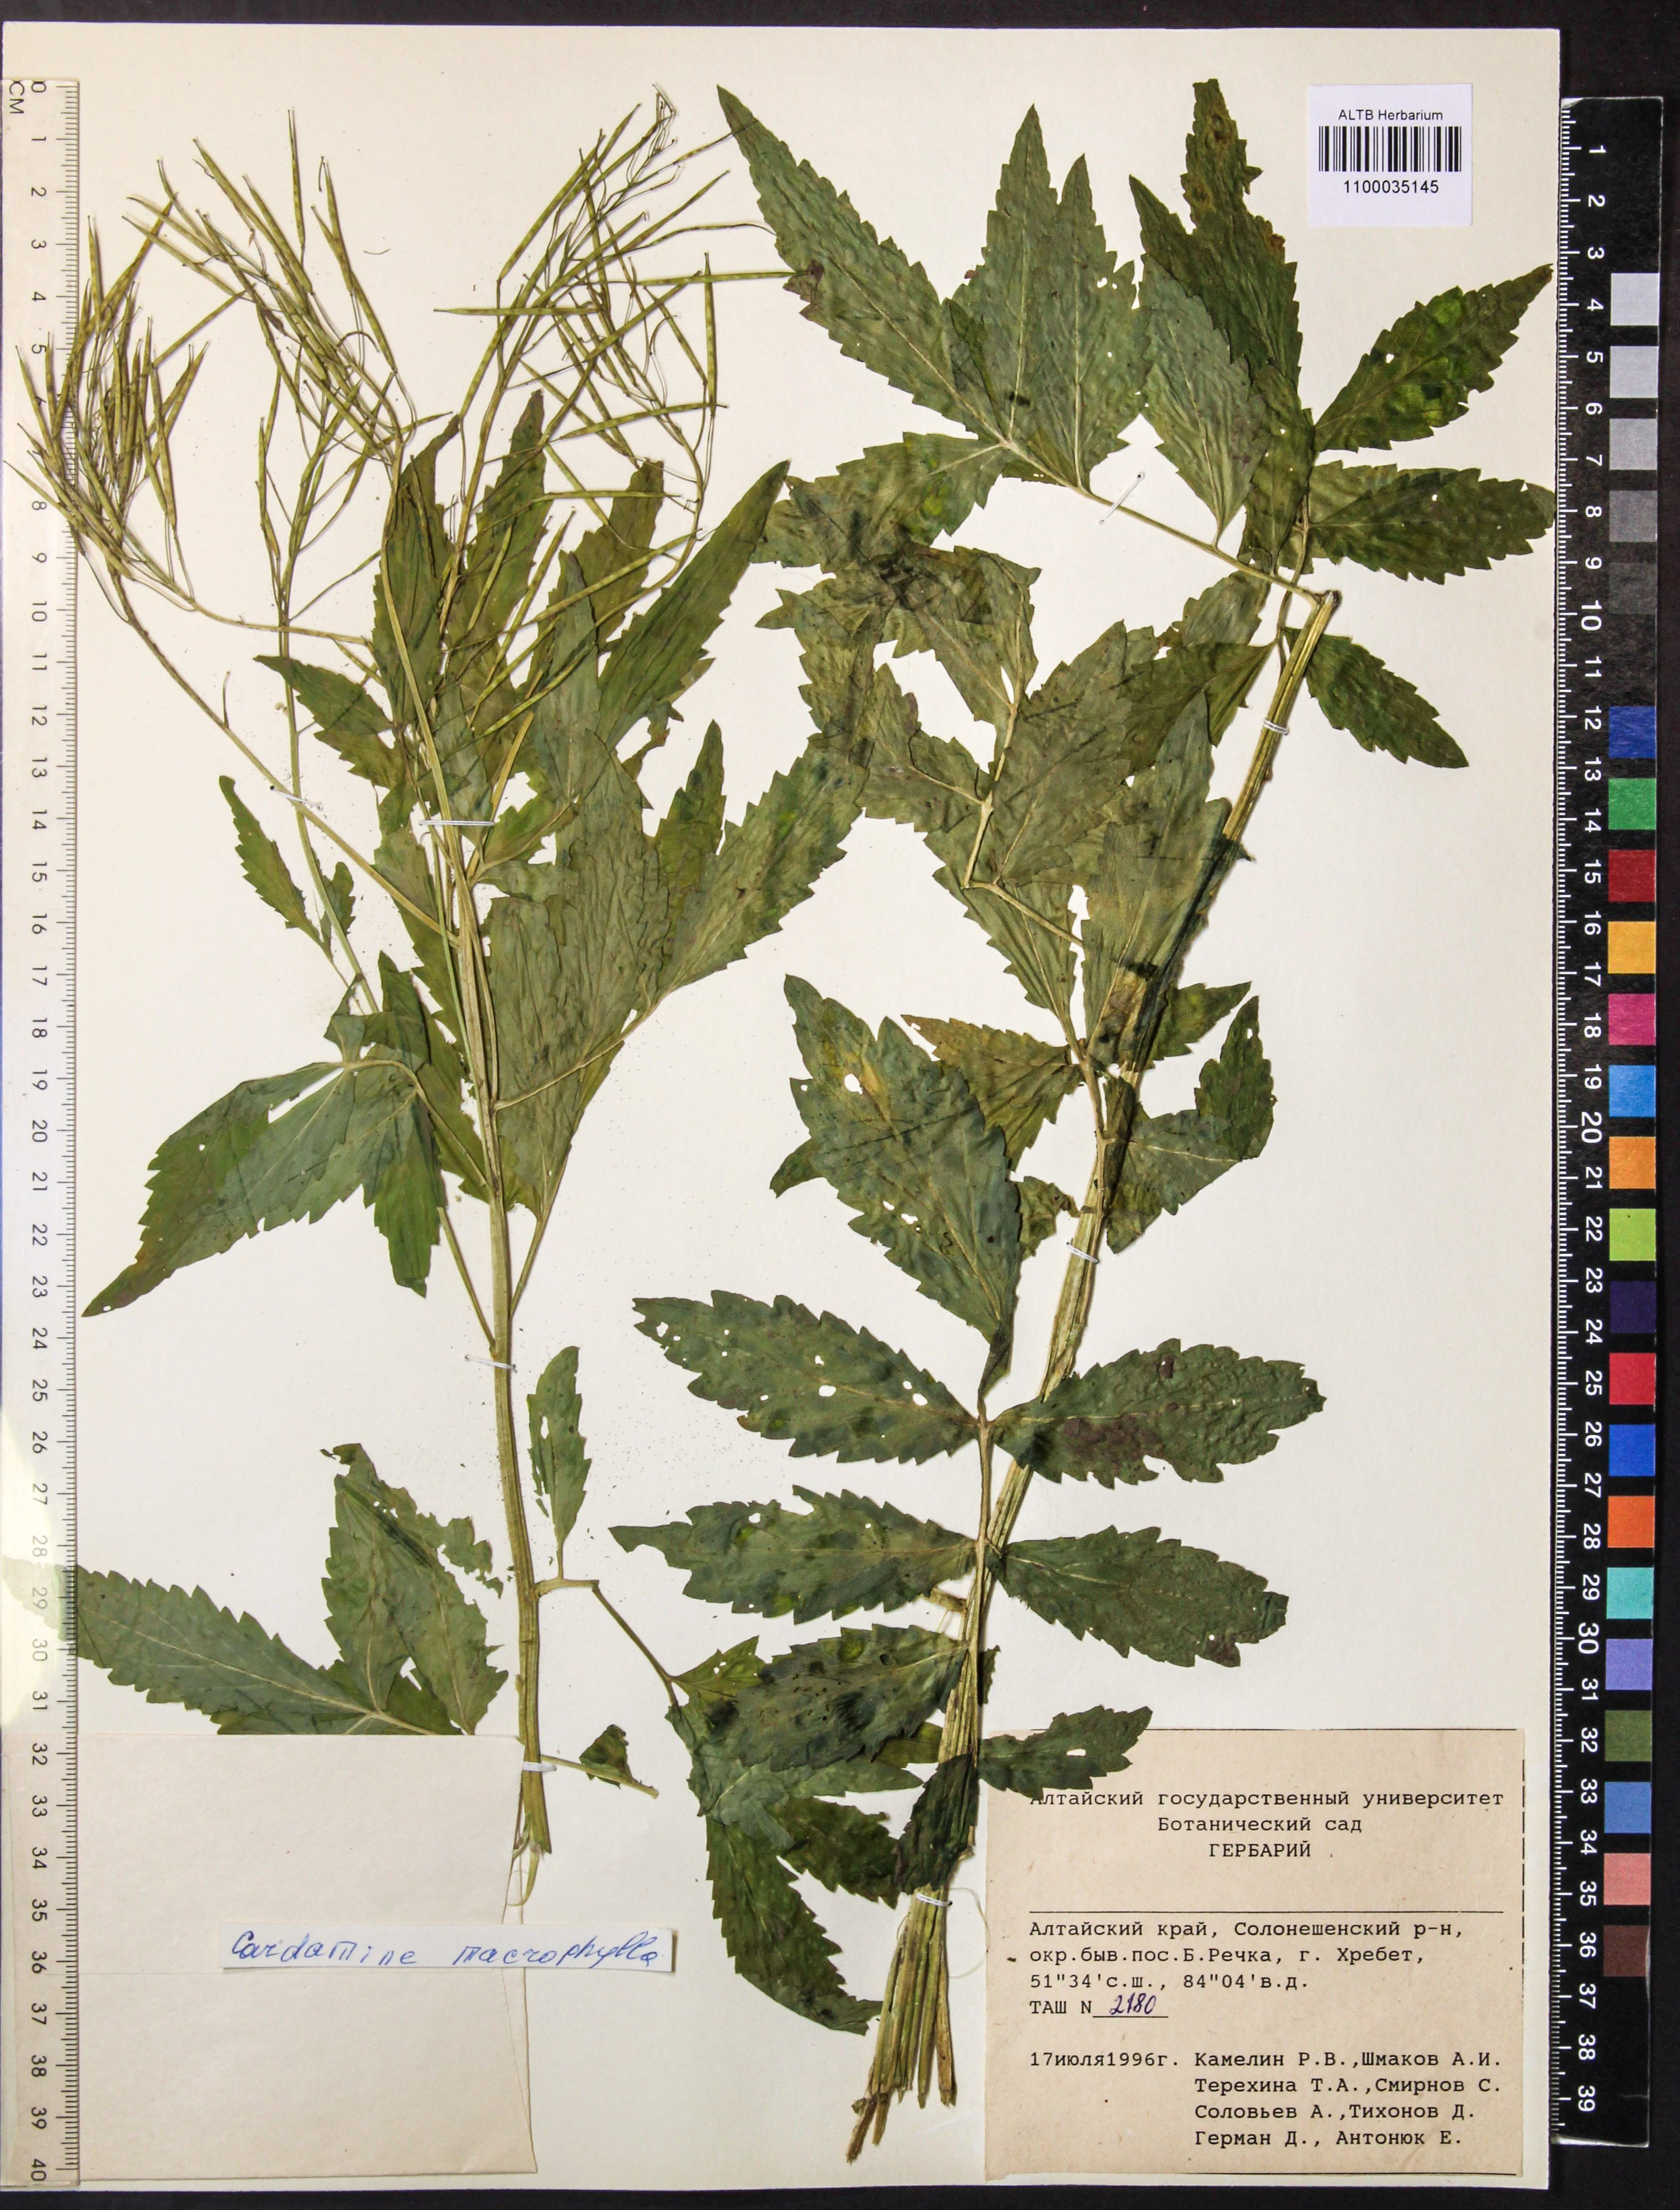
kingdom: Plantae
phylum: Tracheophyta
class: Magnoliopsida
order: Brassicales
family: Brassicaceae
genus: Cardamine
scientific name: Cardamine macrophylla
